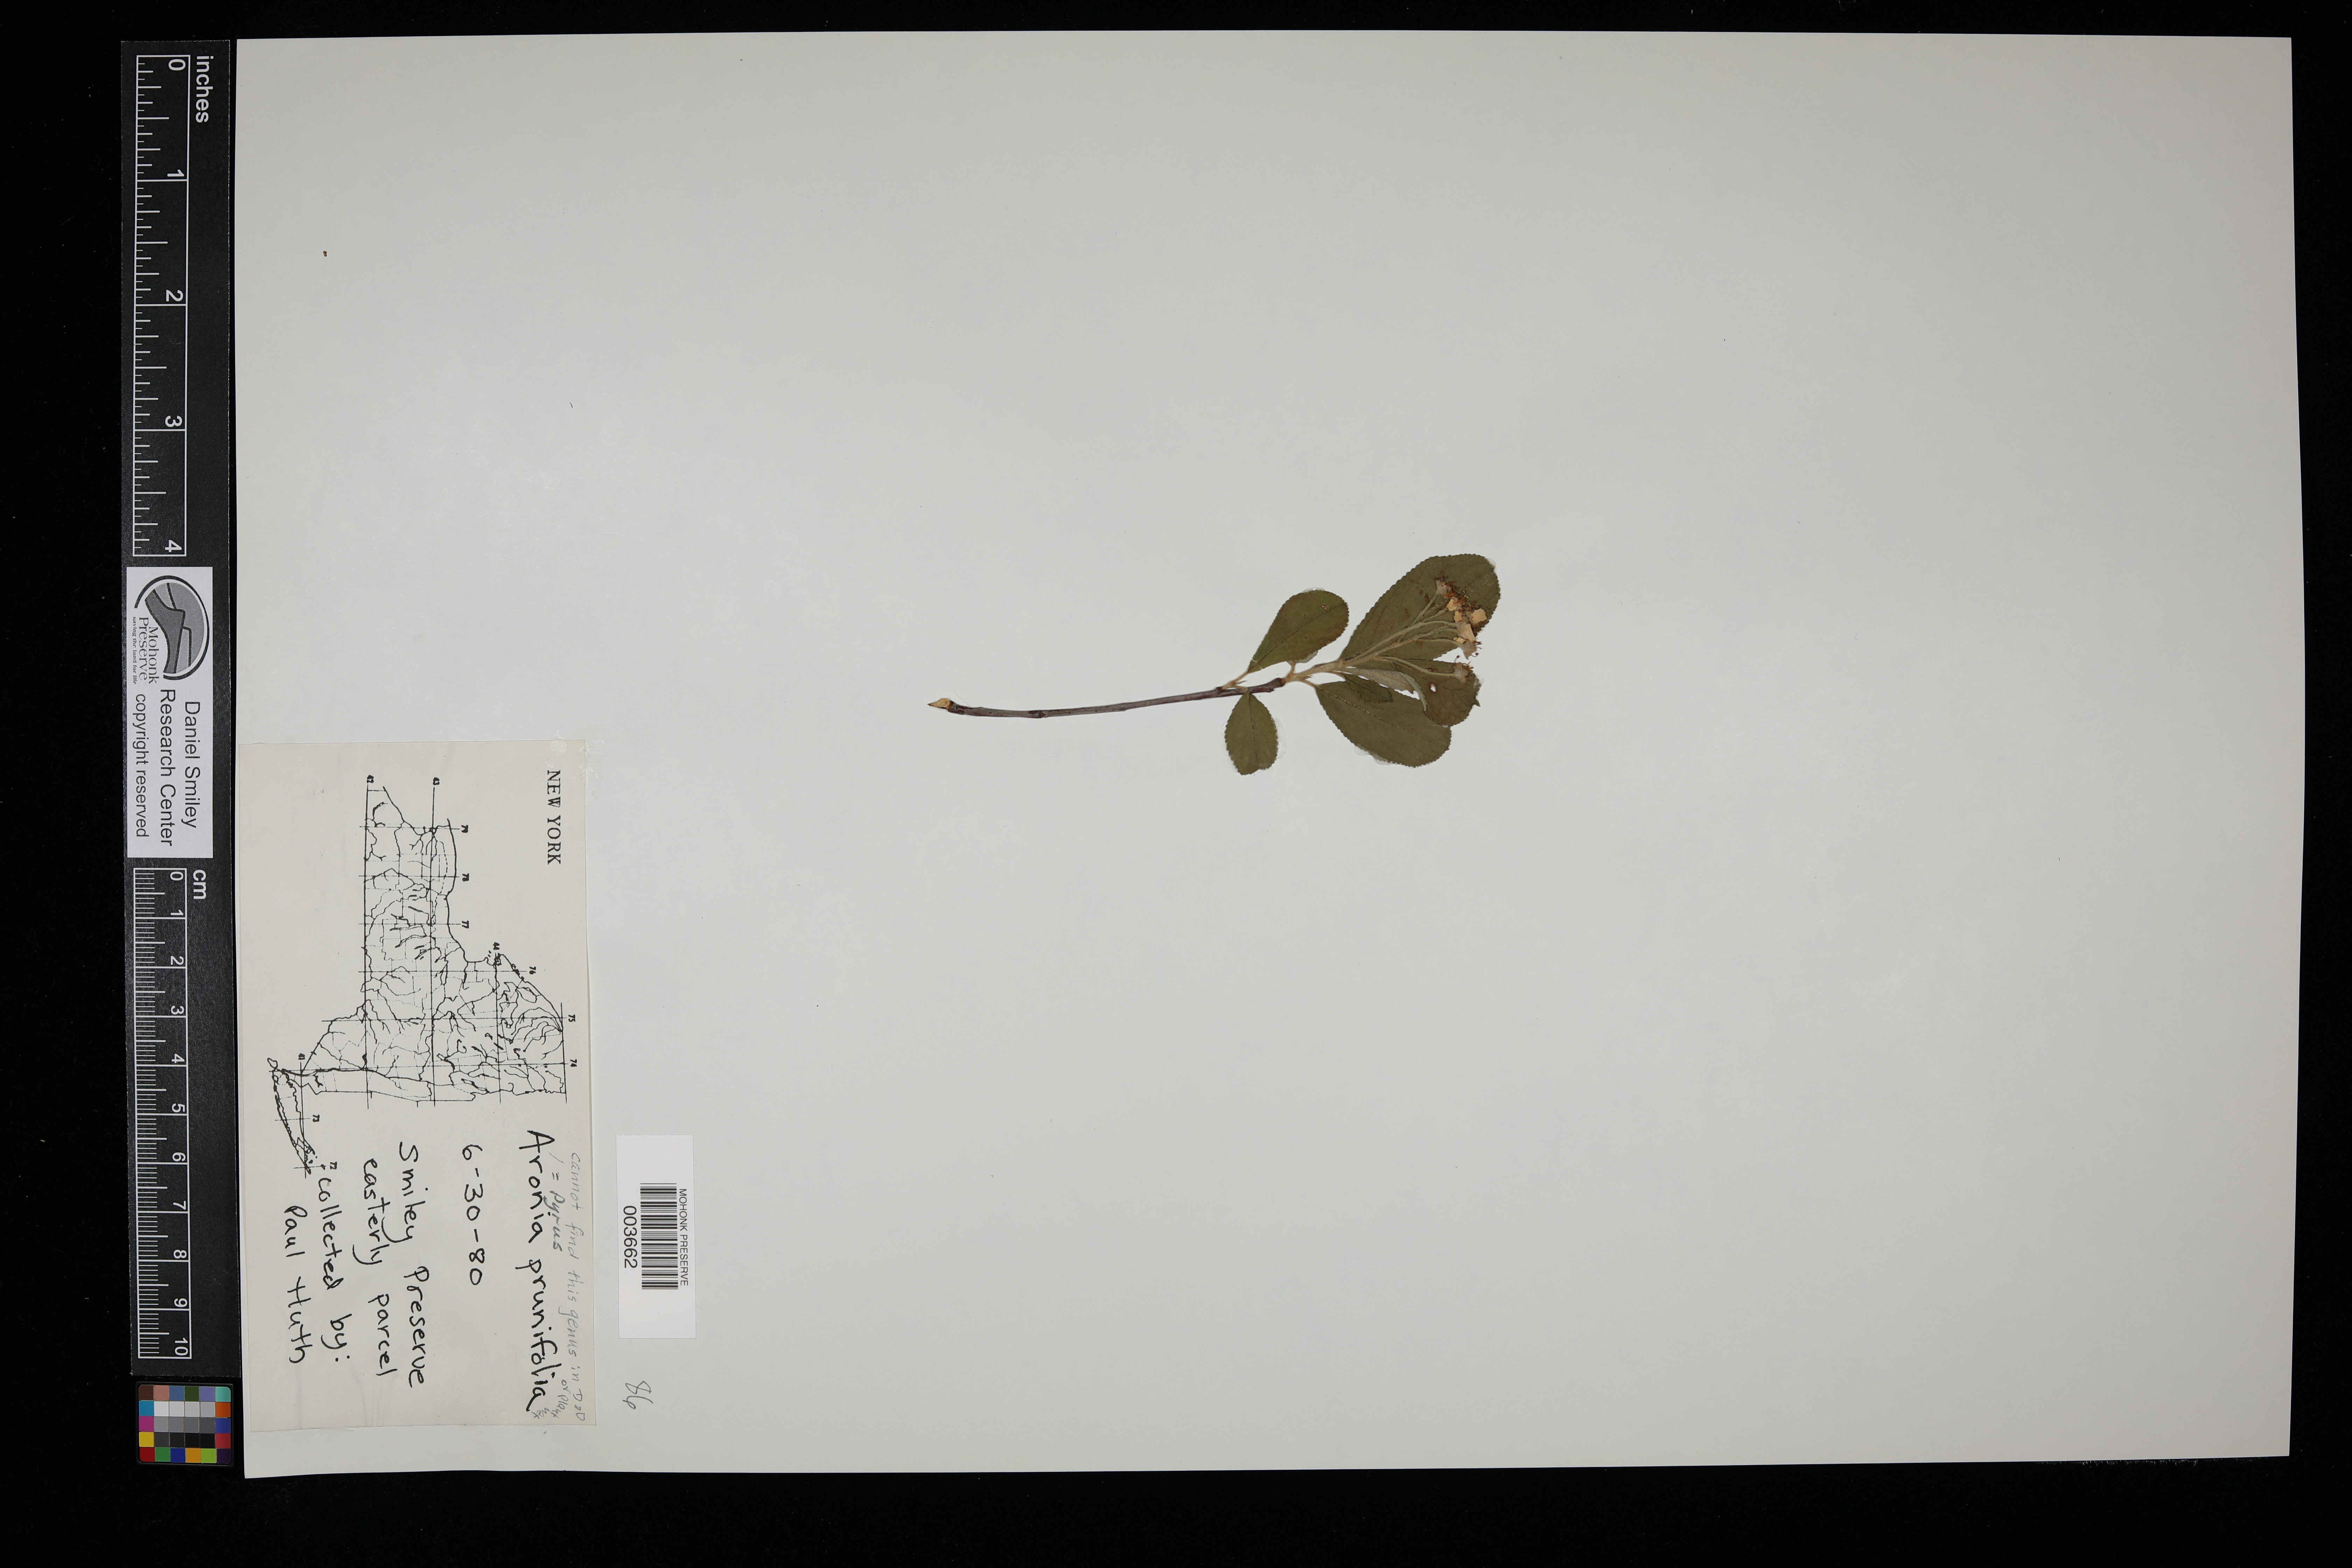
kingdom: Plantae
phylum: Tracheophyta
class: Magnoliopsida
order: Rosales
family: Rosaceae
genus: Aronia
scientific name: Aronia prunifolia
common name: Purple chokeberry
